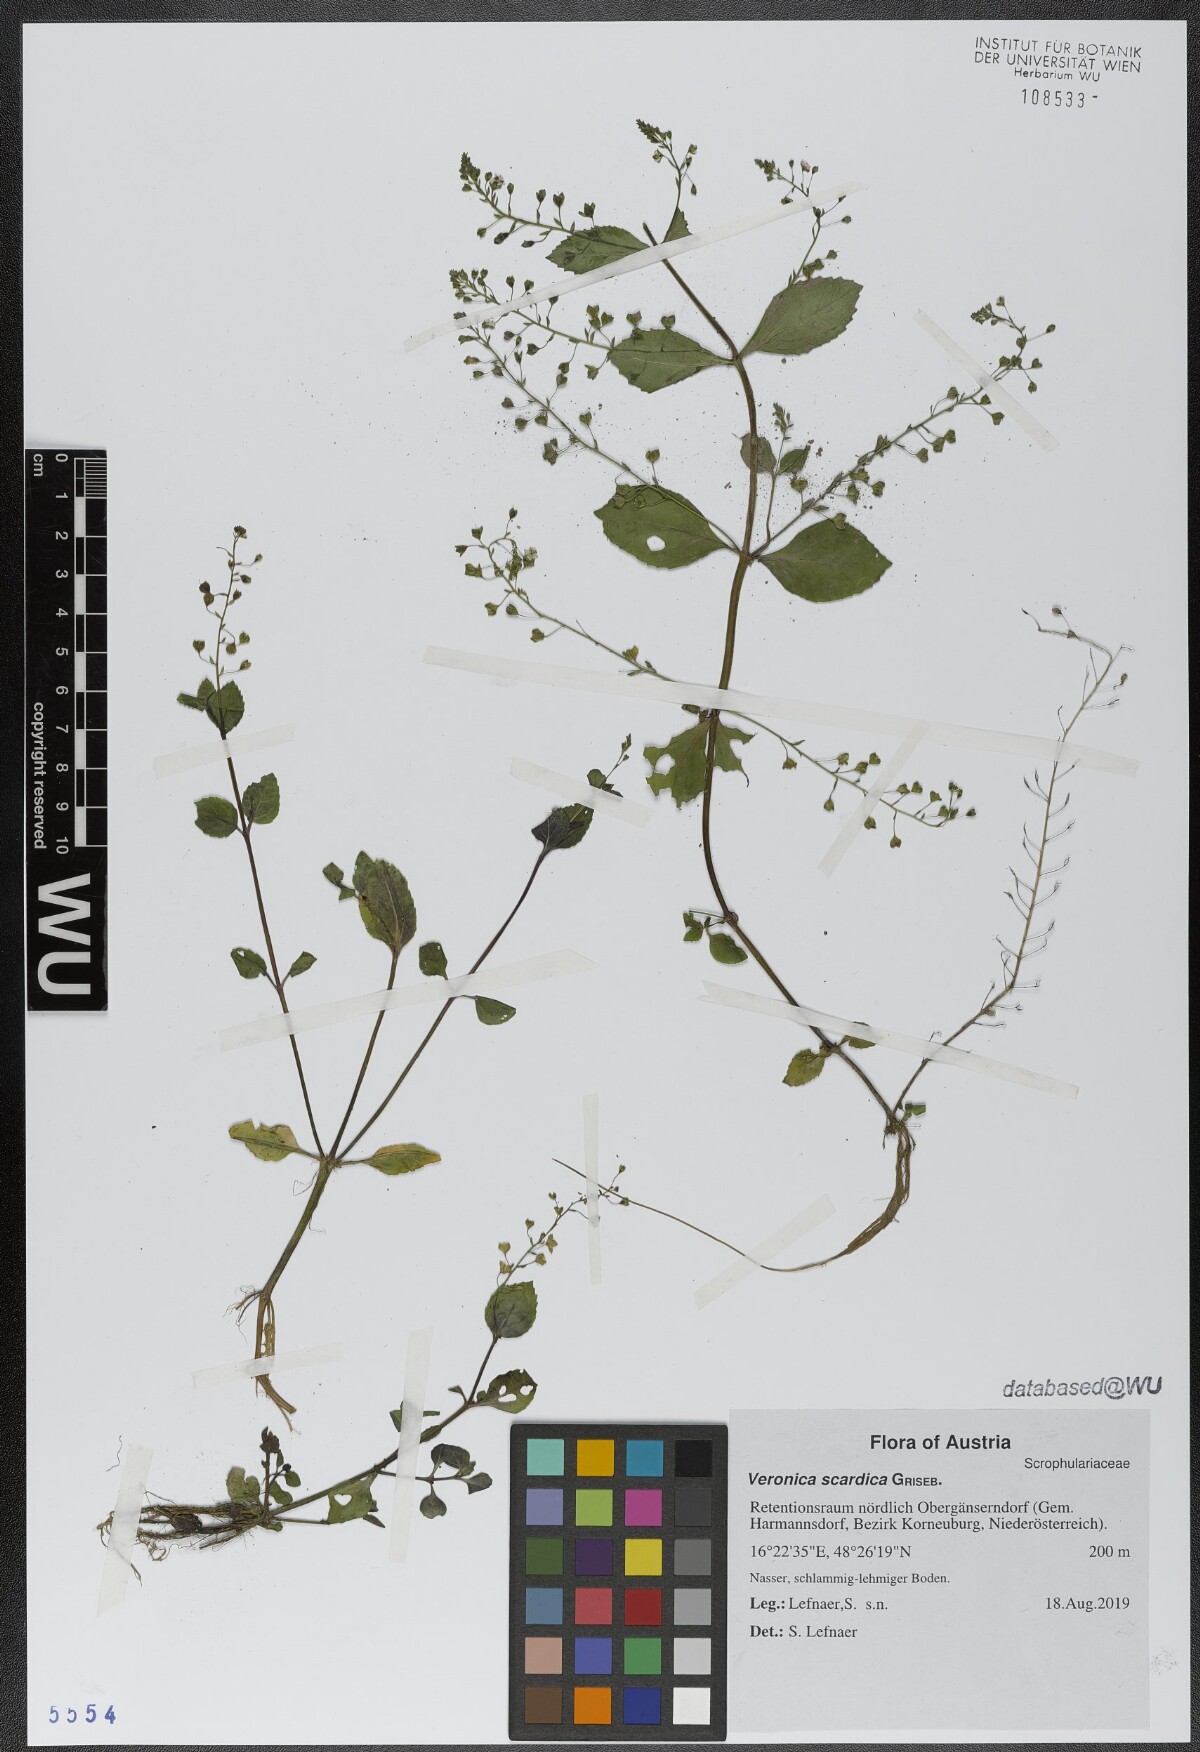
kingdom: Plantae
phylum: Tracheophyta
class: Magnoliopsida
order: Lamiales
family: Plantaginaceae
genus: Veronica
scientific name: Veronica scardica
